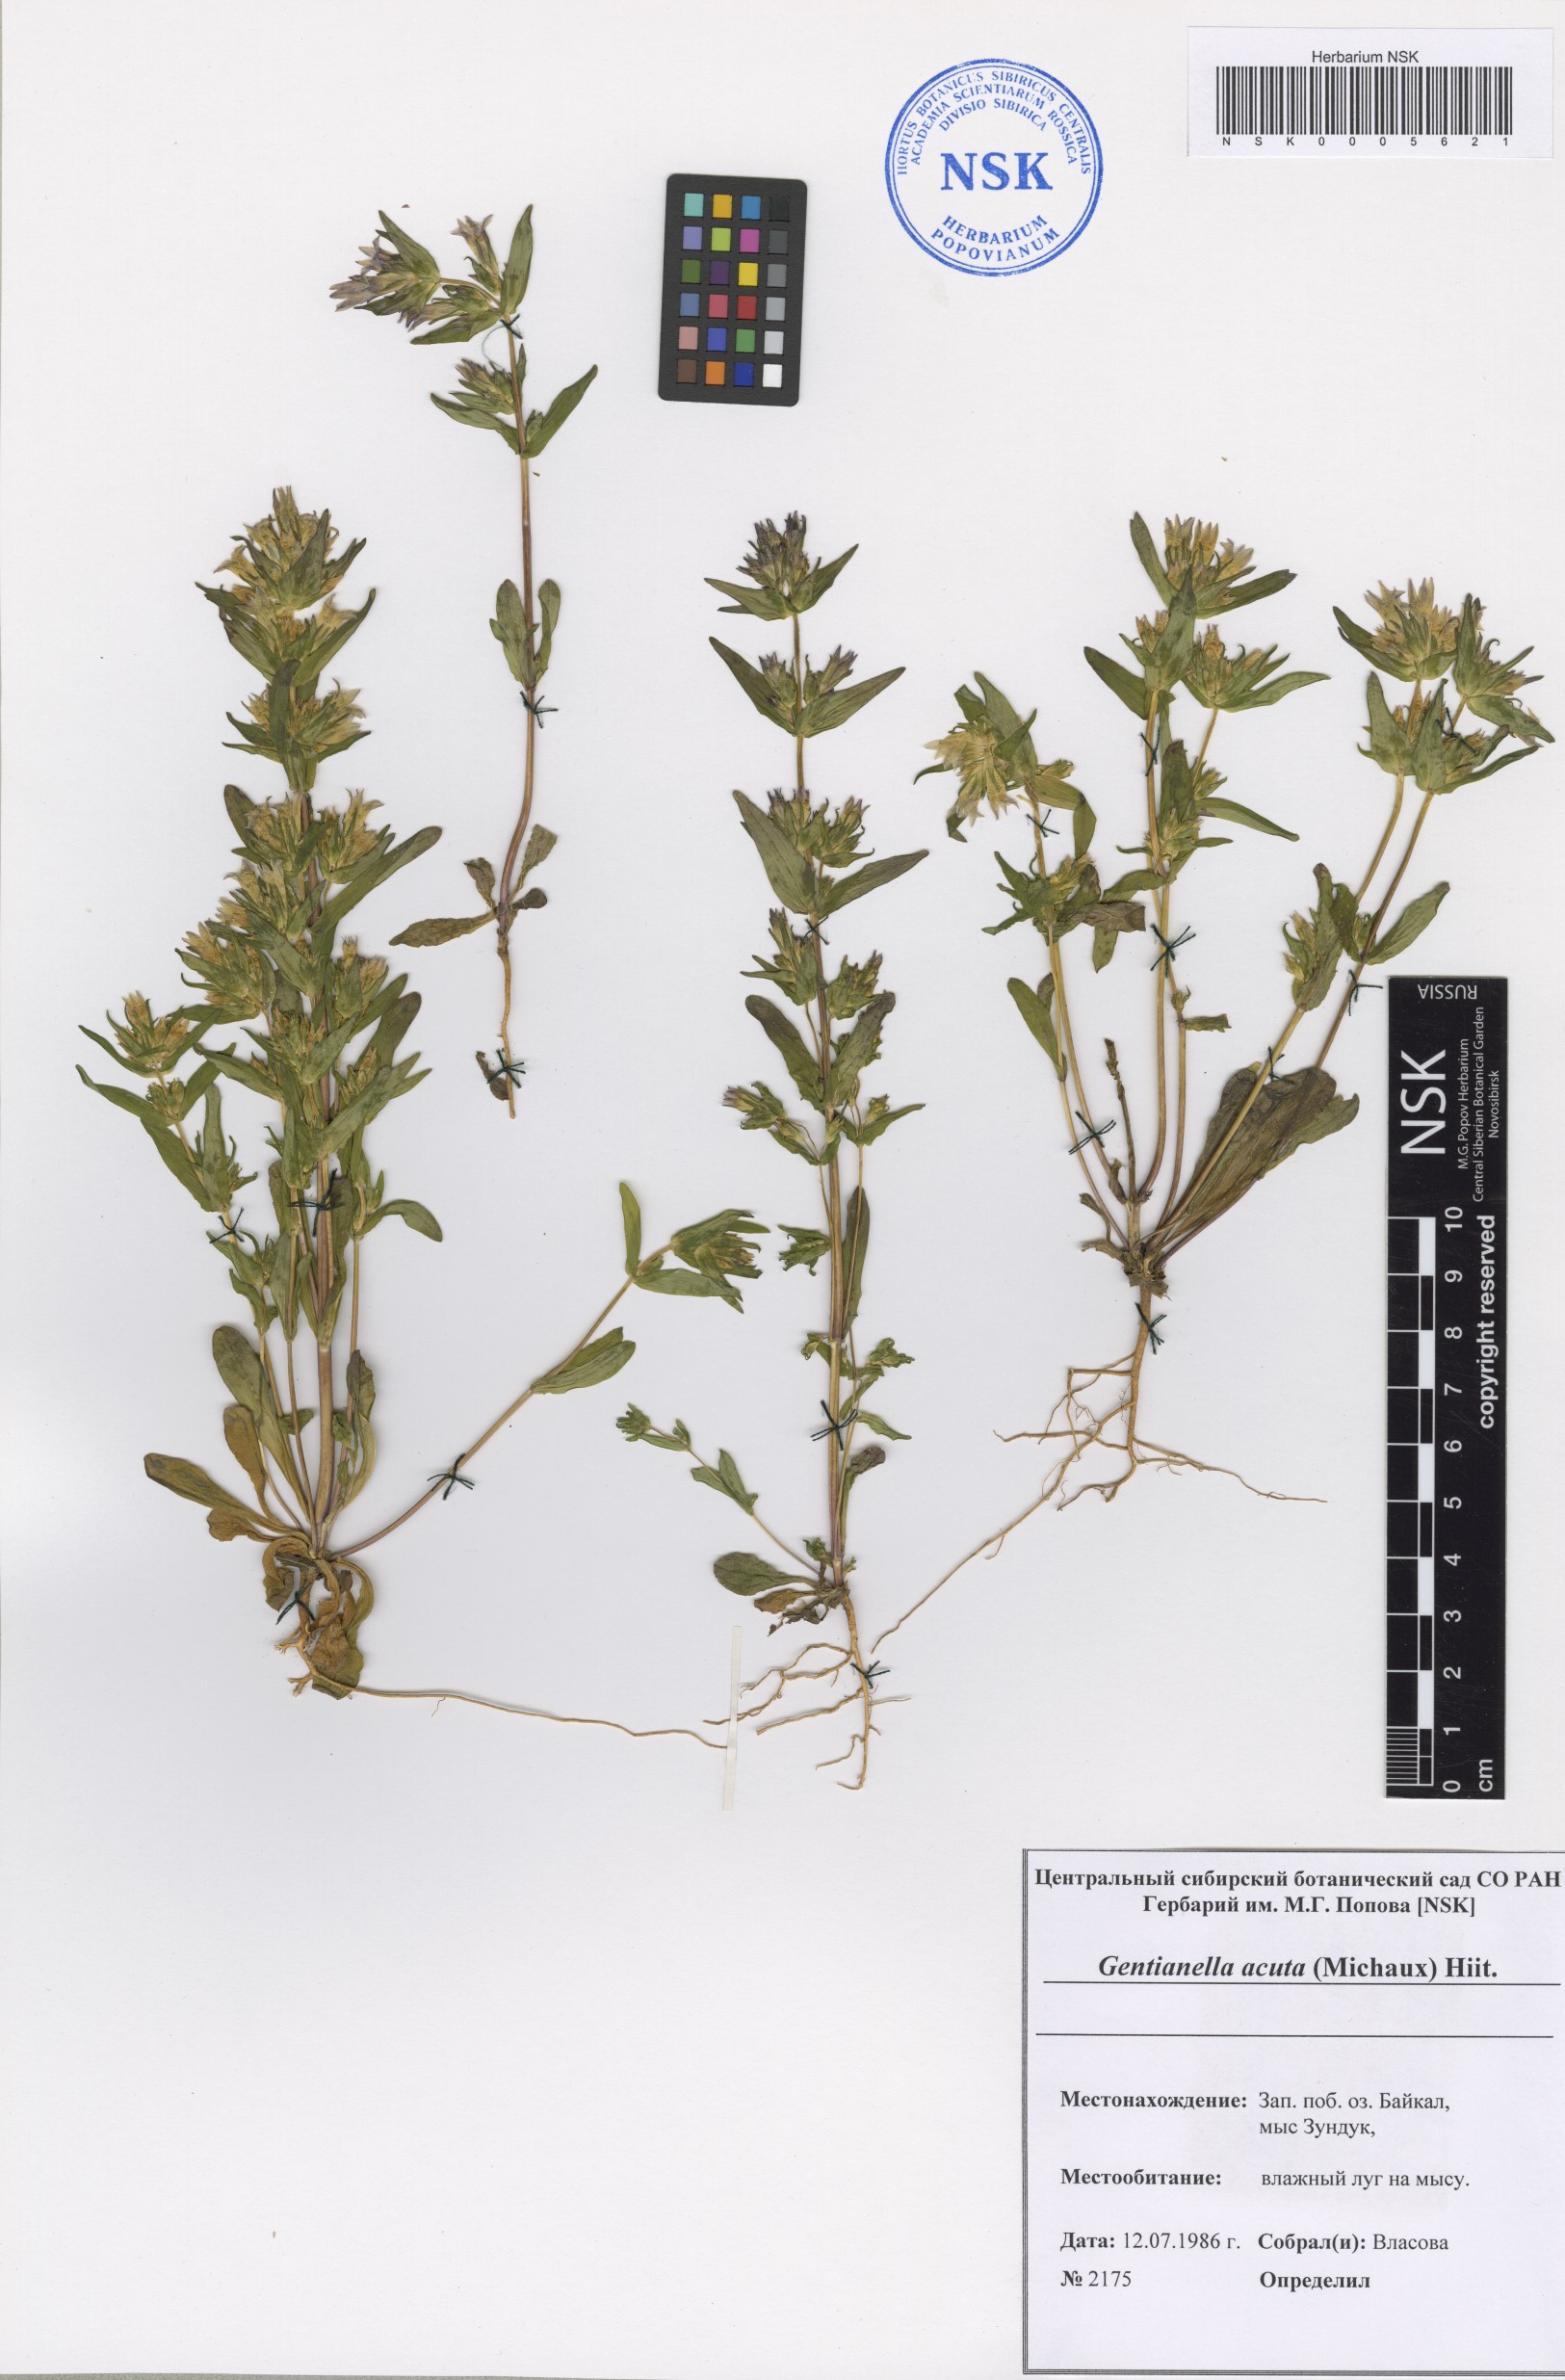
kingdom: Plantae
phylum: Tracheophyta
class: Magnoliopsida
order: Gentianales
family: Gentianaceae
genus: Gentianella
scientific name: Gentianella amarella
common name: Autumn gentian
